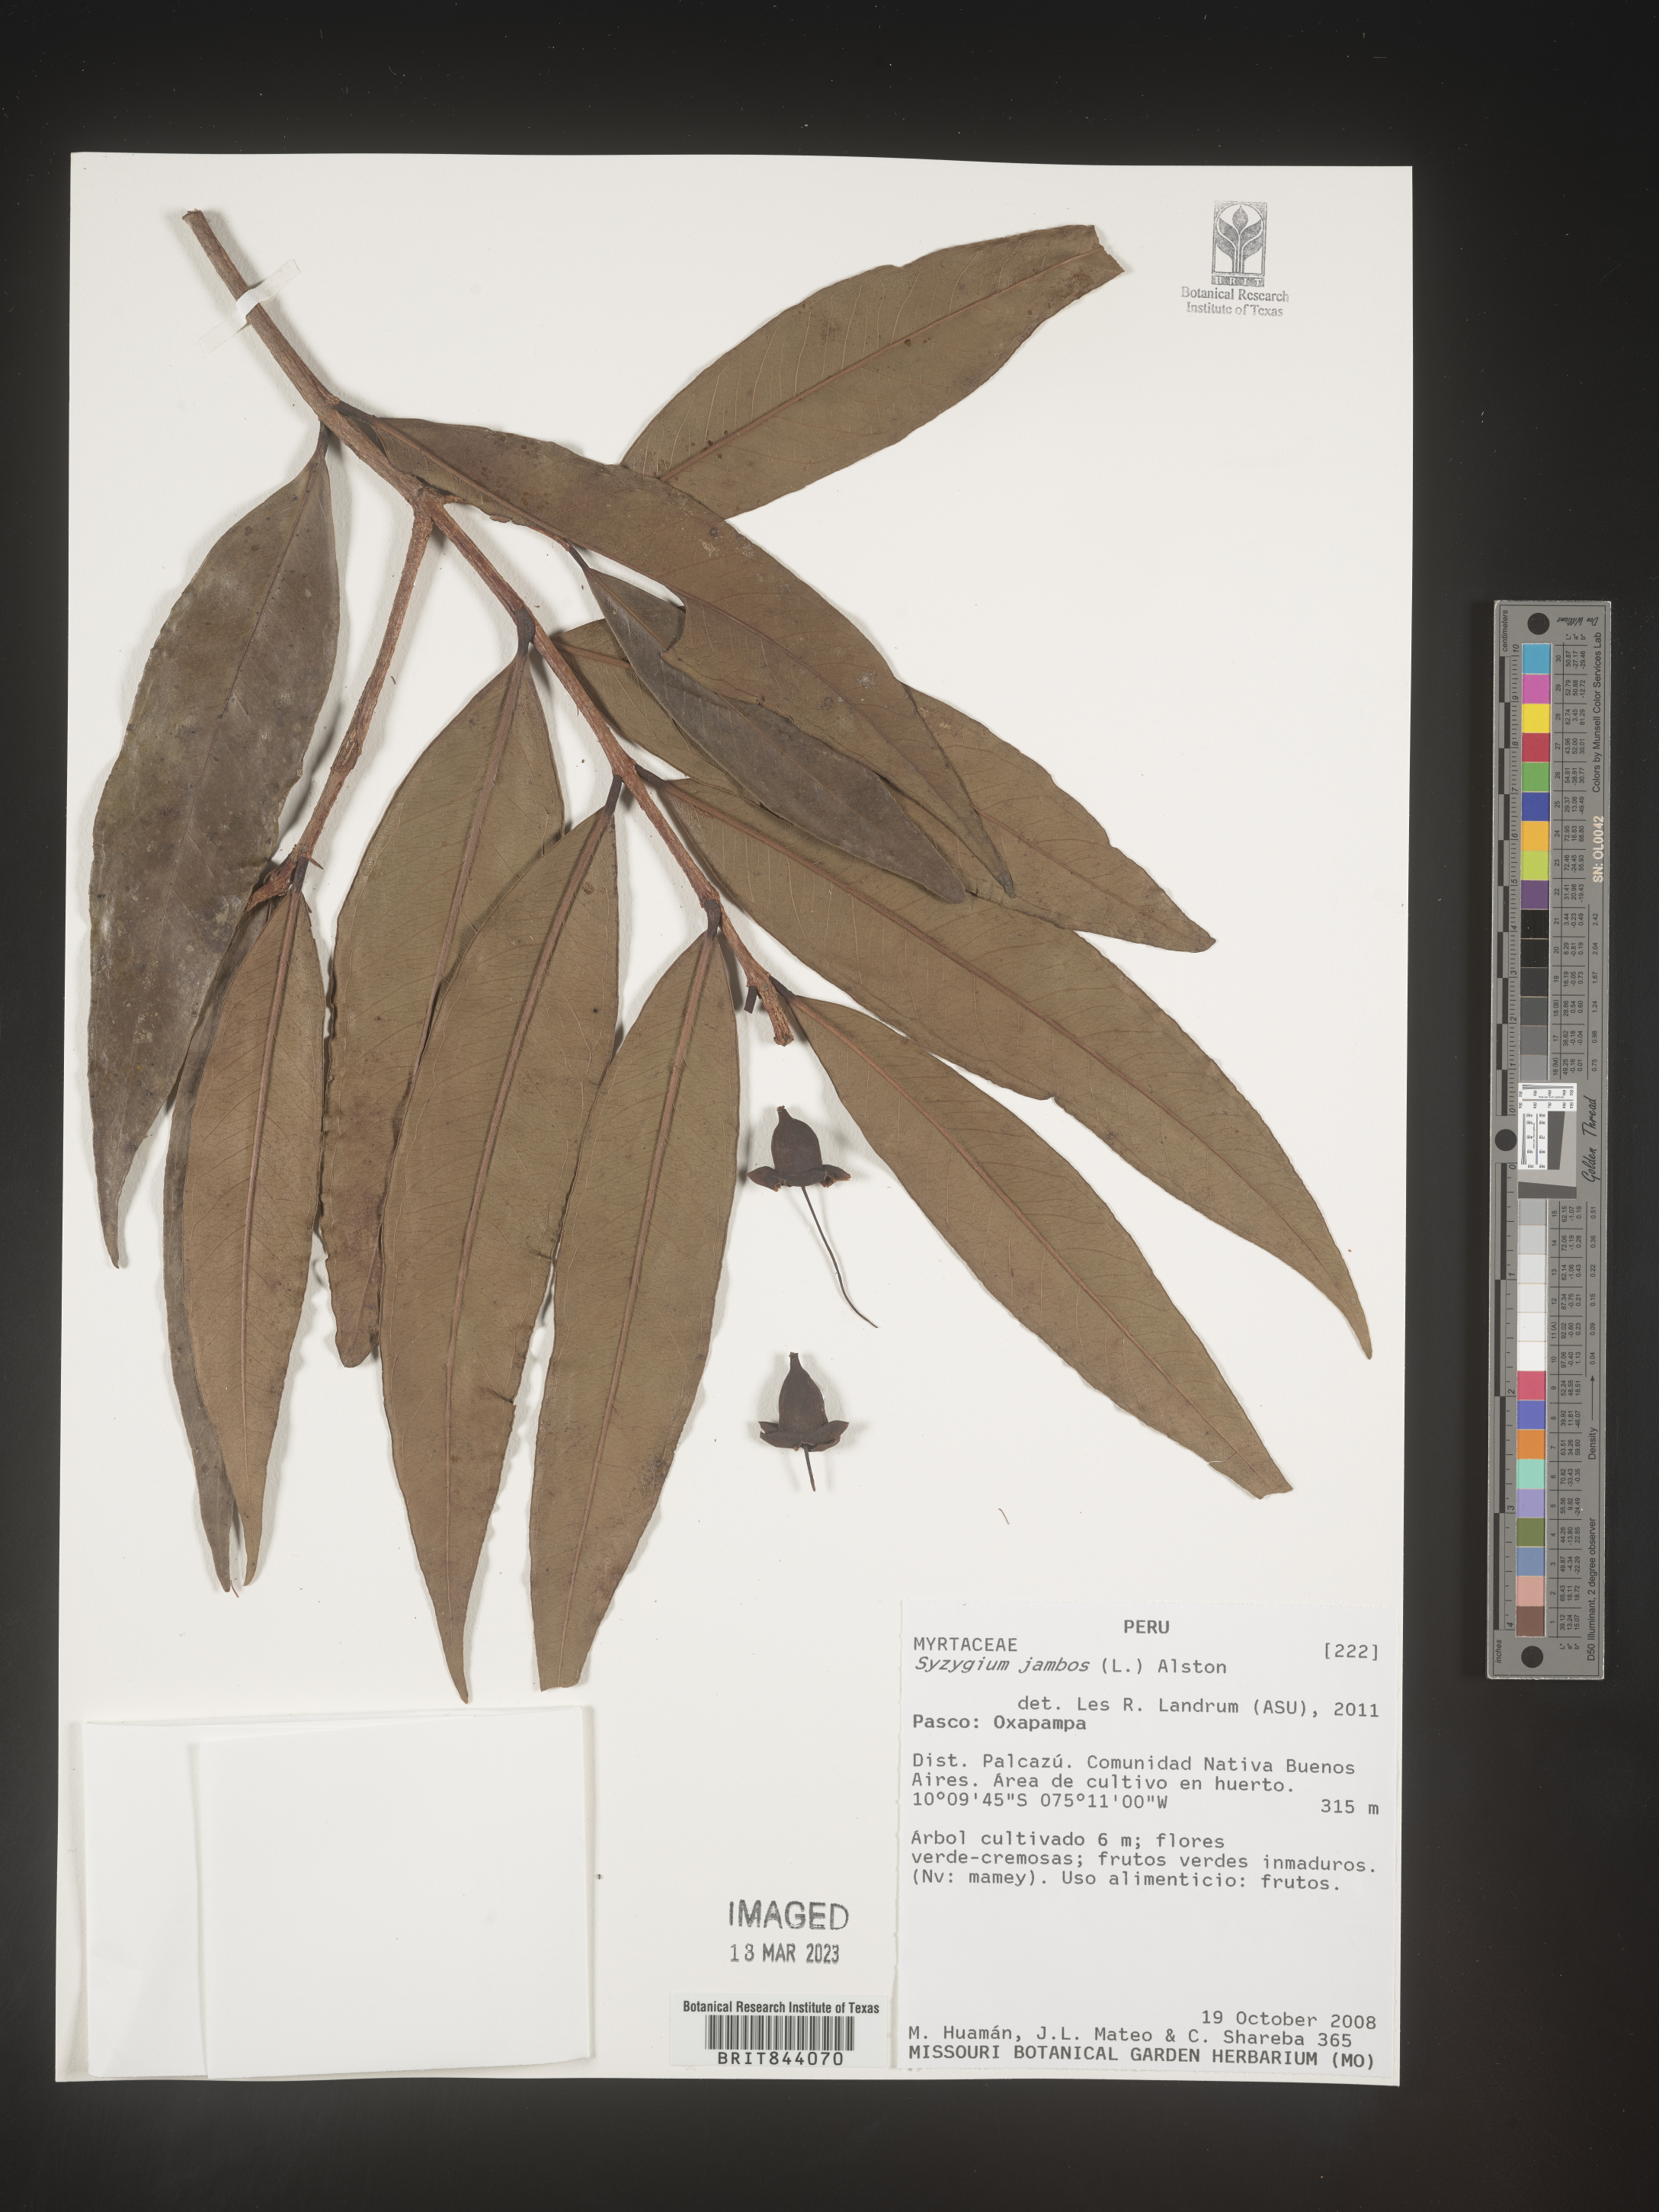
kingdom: Plantae
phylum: Tracheophyta
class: Magnoliopsida
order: Myrtales
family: Myrtaceae
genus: Syzygium
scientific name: Syzygium jambos
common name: Malabar plum
